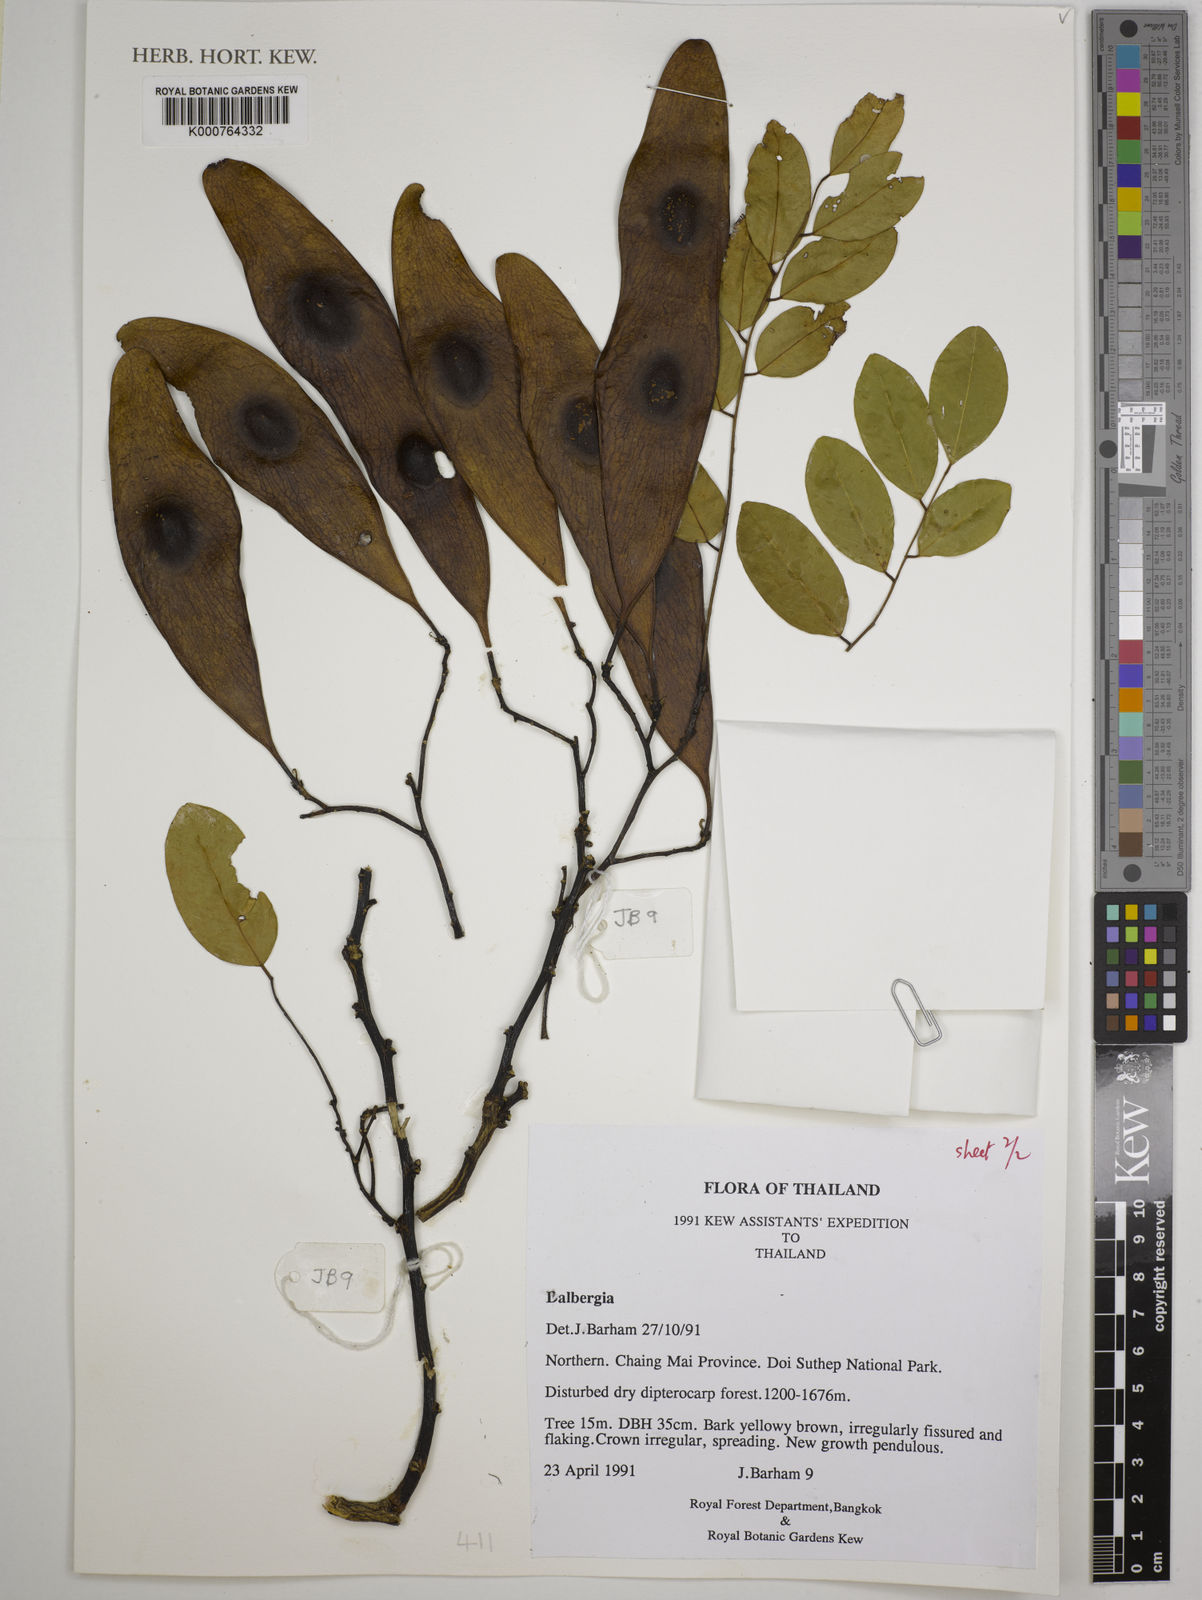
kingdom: Plantae
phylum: Tracheophyta
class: Magnoliopsida
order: Fabales
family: Fabaceae
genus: Dalbergia
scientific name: Dalbergia
